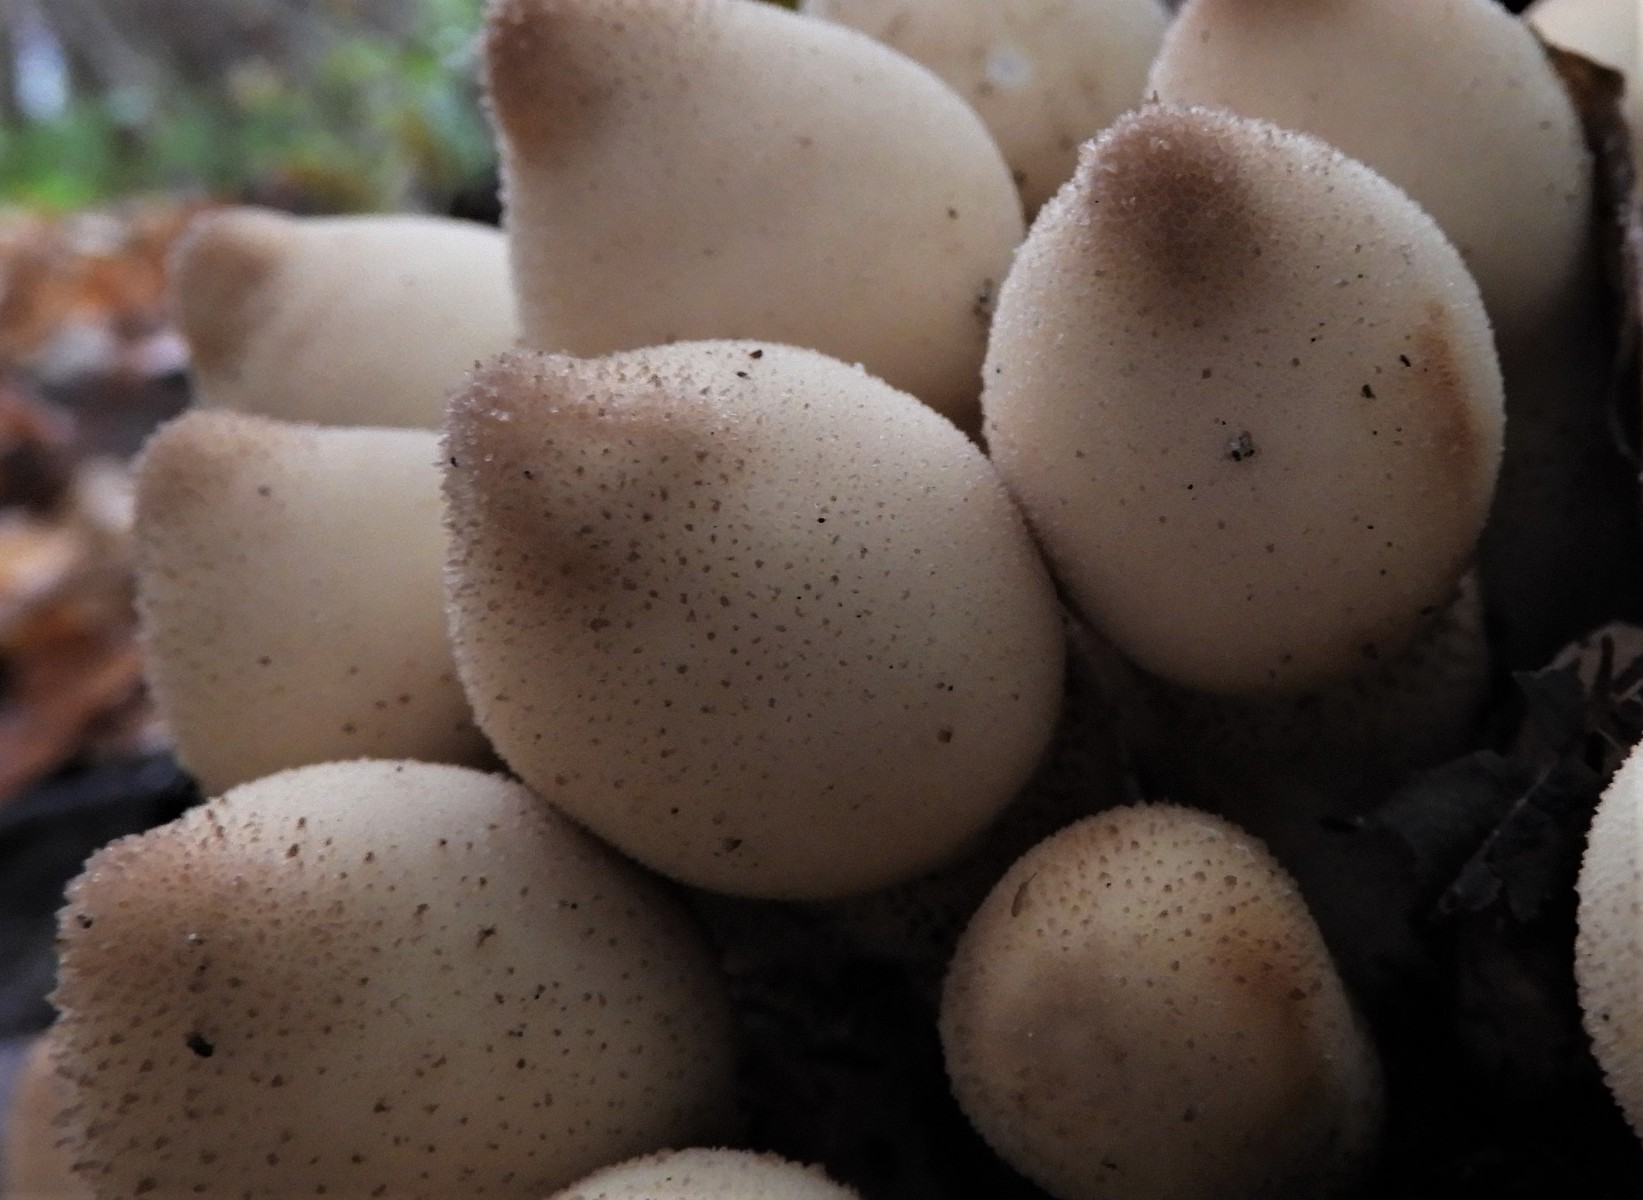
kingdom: Fungi
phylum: Basidiomycota
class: Agaricomycetes
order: Agaricales
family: Lycoperdaceae
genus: Apioperdon
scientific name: Apioperdon pyriforme
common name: pære-støvbold
